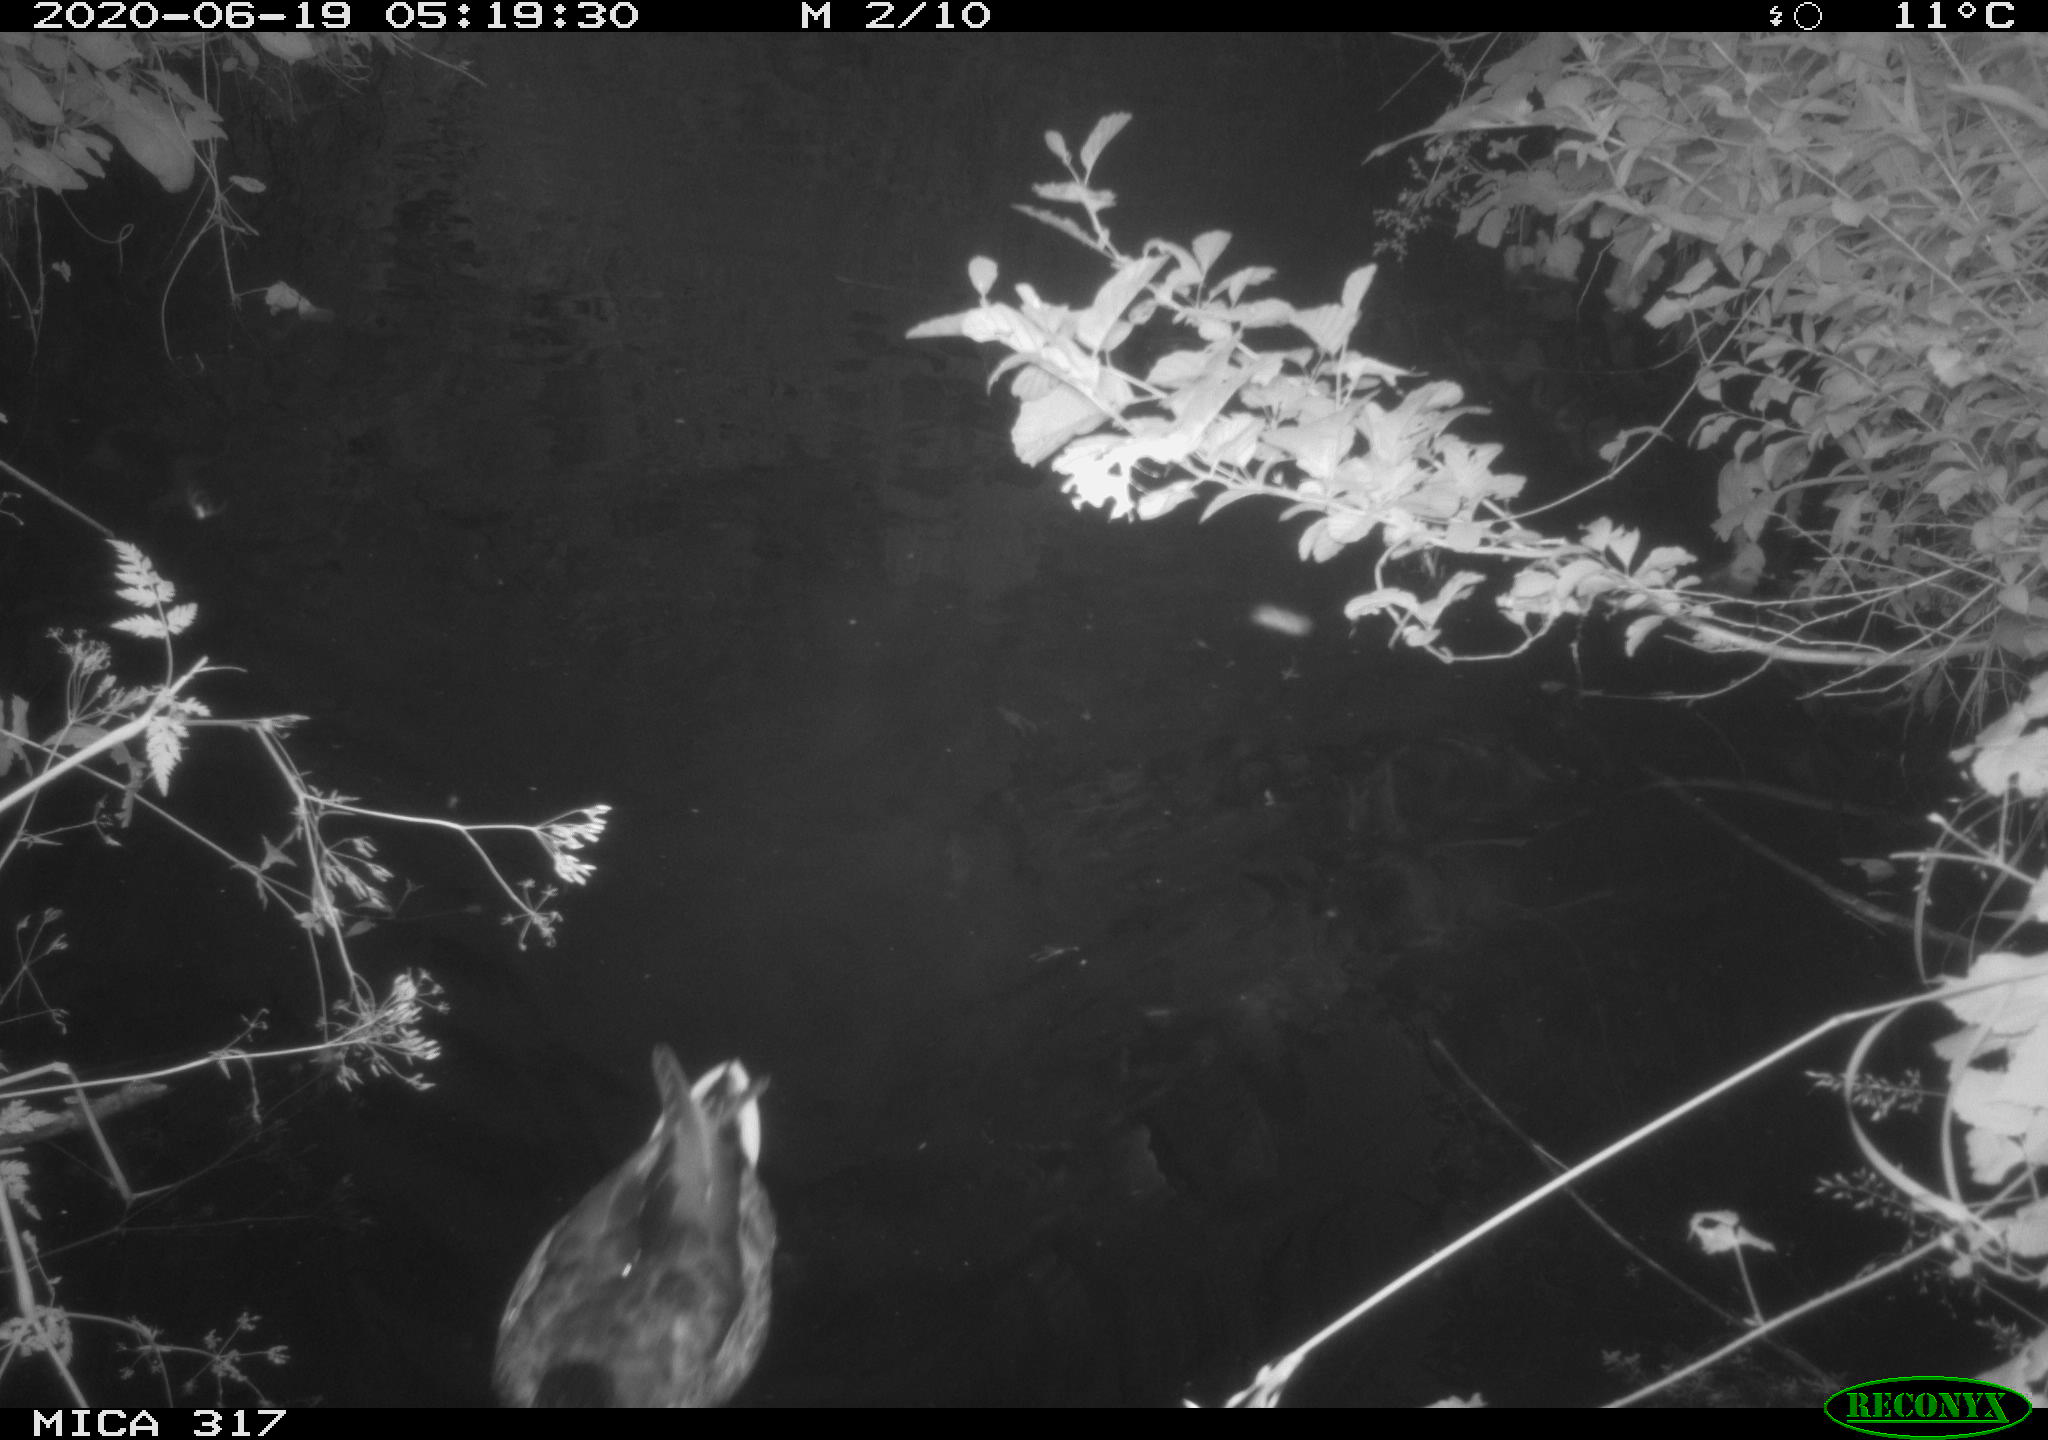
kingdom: Animalia
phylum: Chordata
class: Aves
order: Anseriformes
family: Anatidae
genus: Anas
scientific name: Anas platyrhynchos
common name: Mallard
